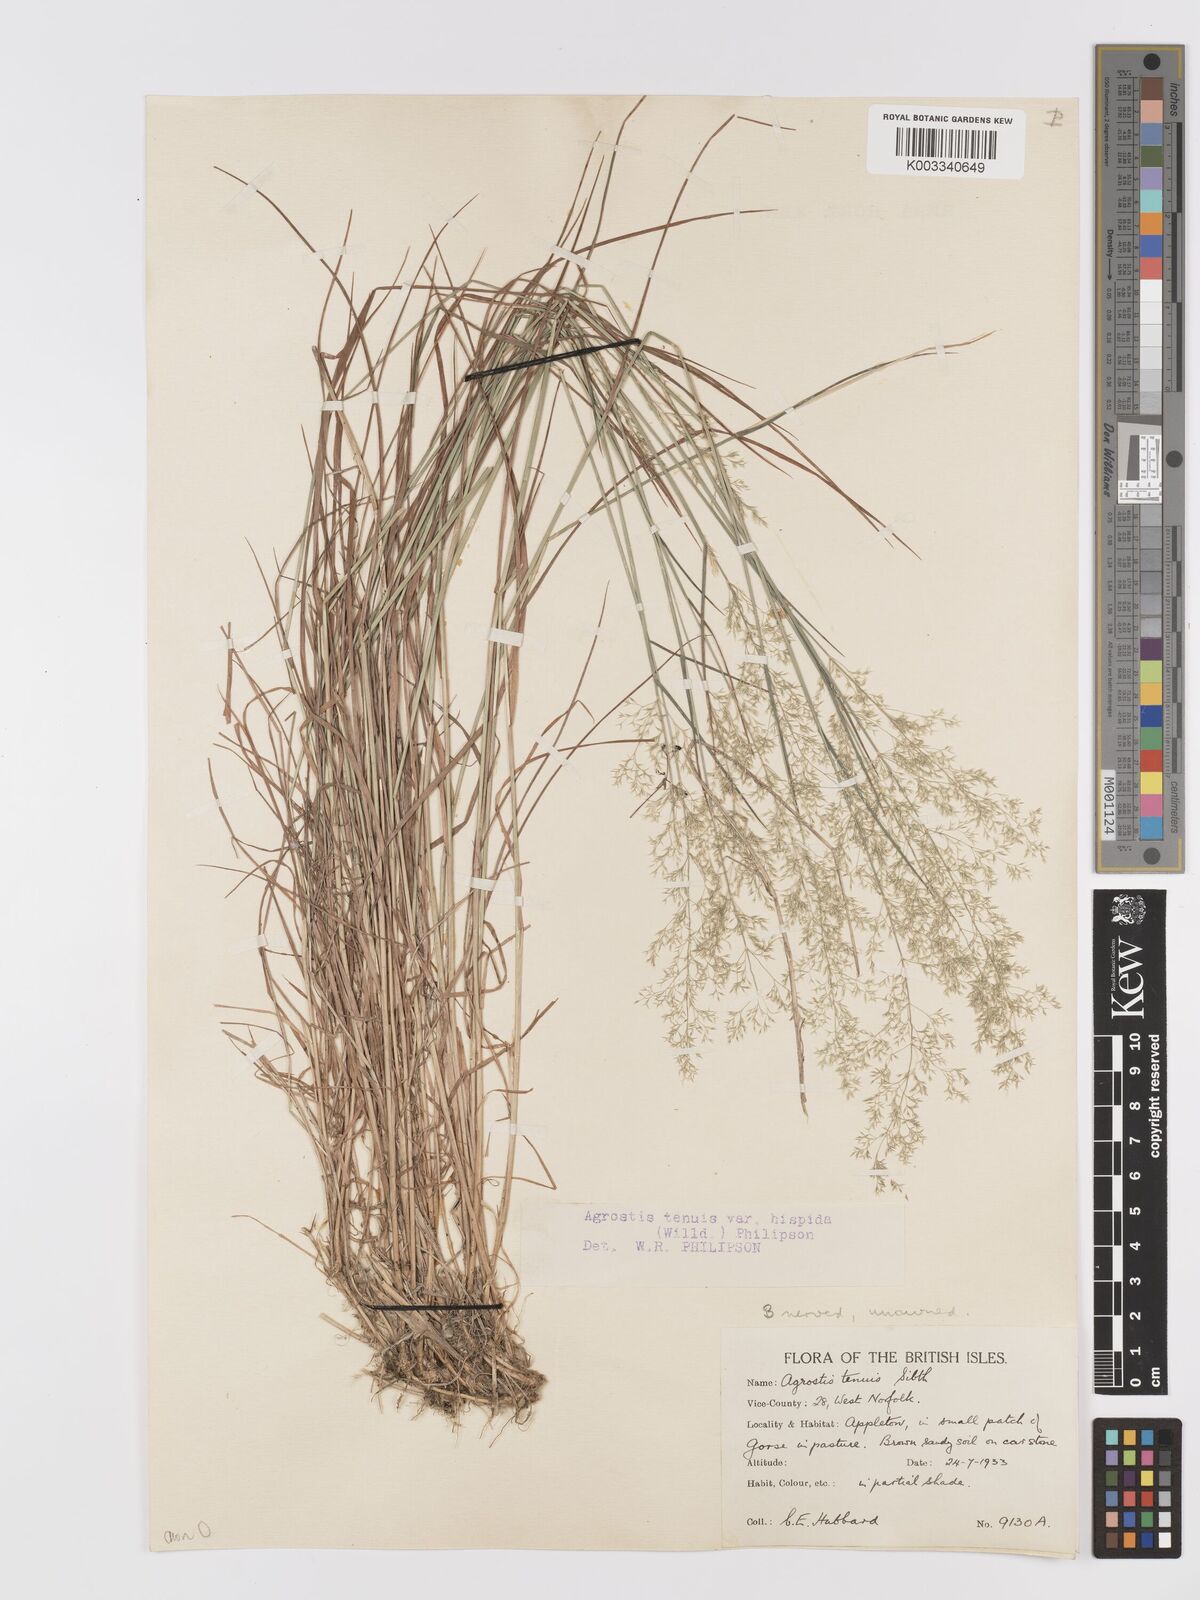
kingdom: Plantae
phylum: Tracheophyta
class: Liliopsida
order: Poales
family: Poaceae
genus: Agrostis
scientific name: Agrostis capillaris
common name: Colonial bentgrass
